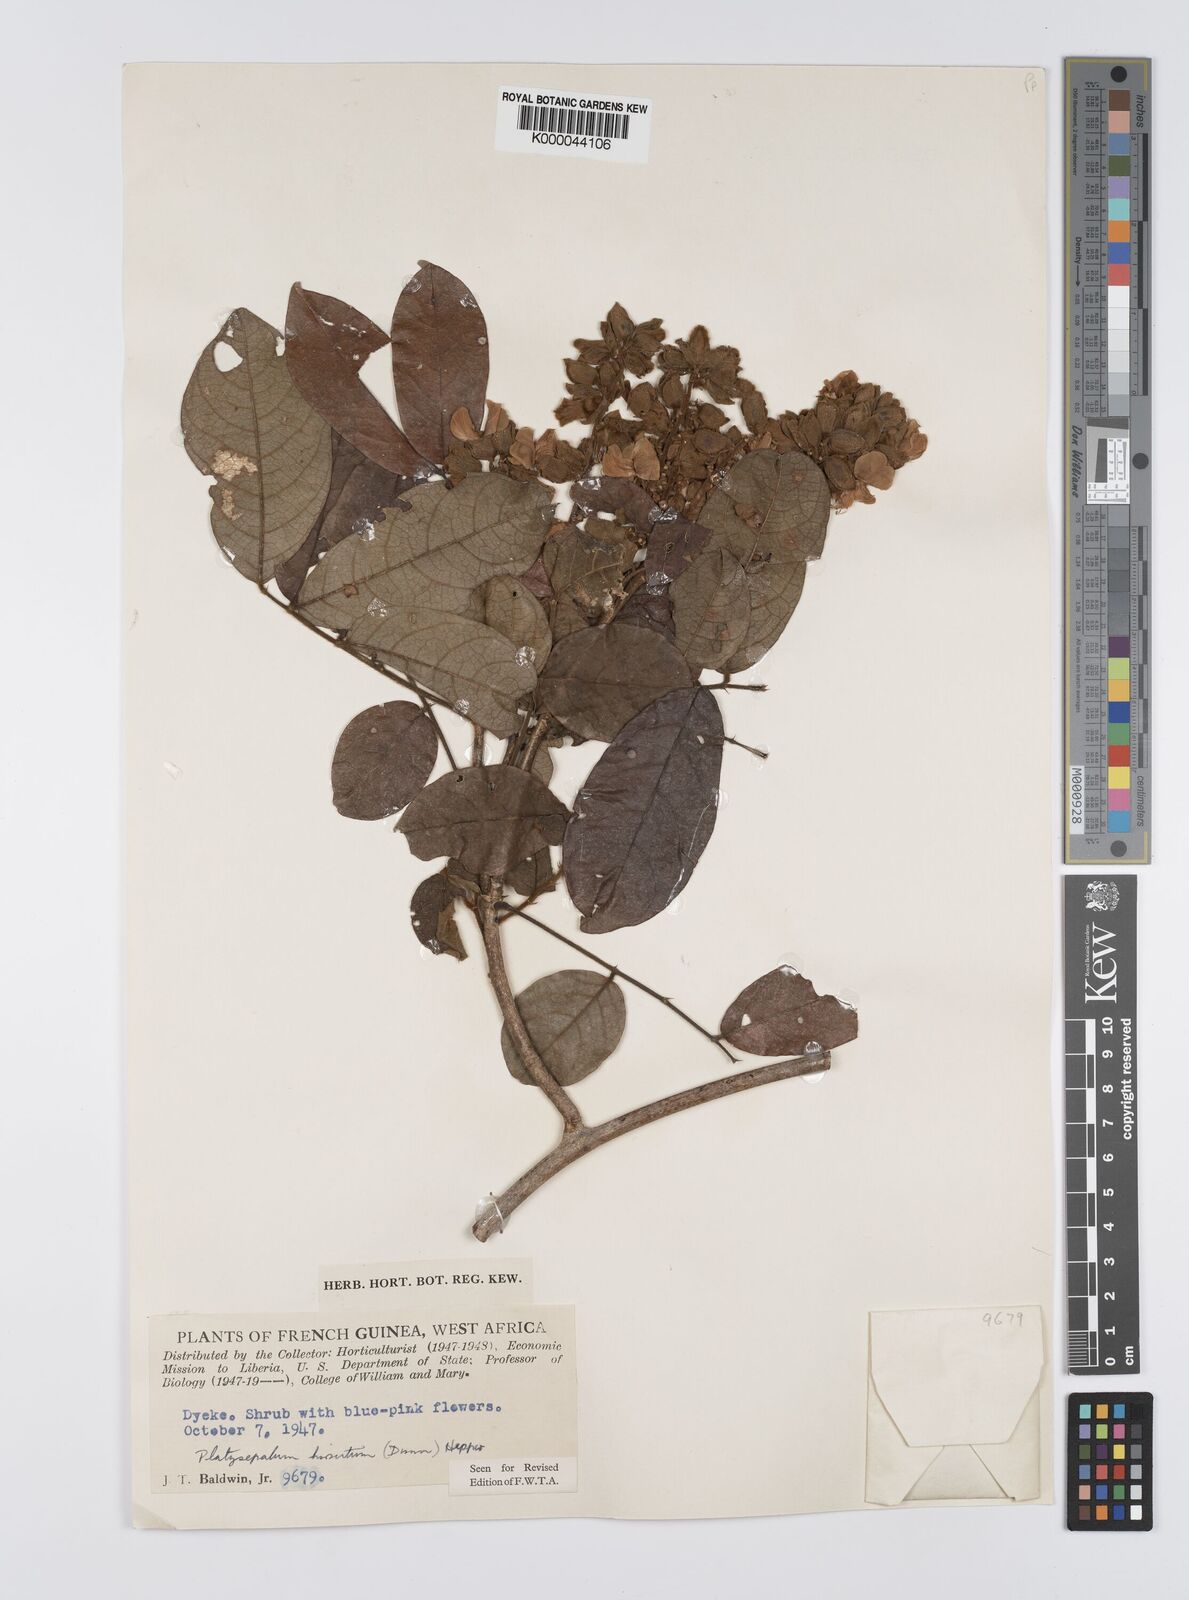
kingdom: Plantae
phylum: Tracheophyta
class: Magnoliopsida
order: Fabales
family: Fabaceae
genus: Platysepalum
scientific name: Platysepalum hirsutum
